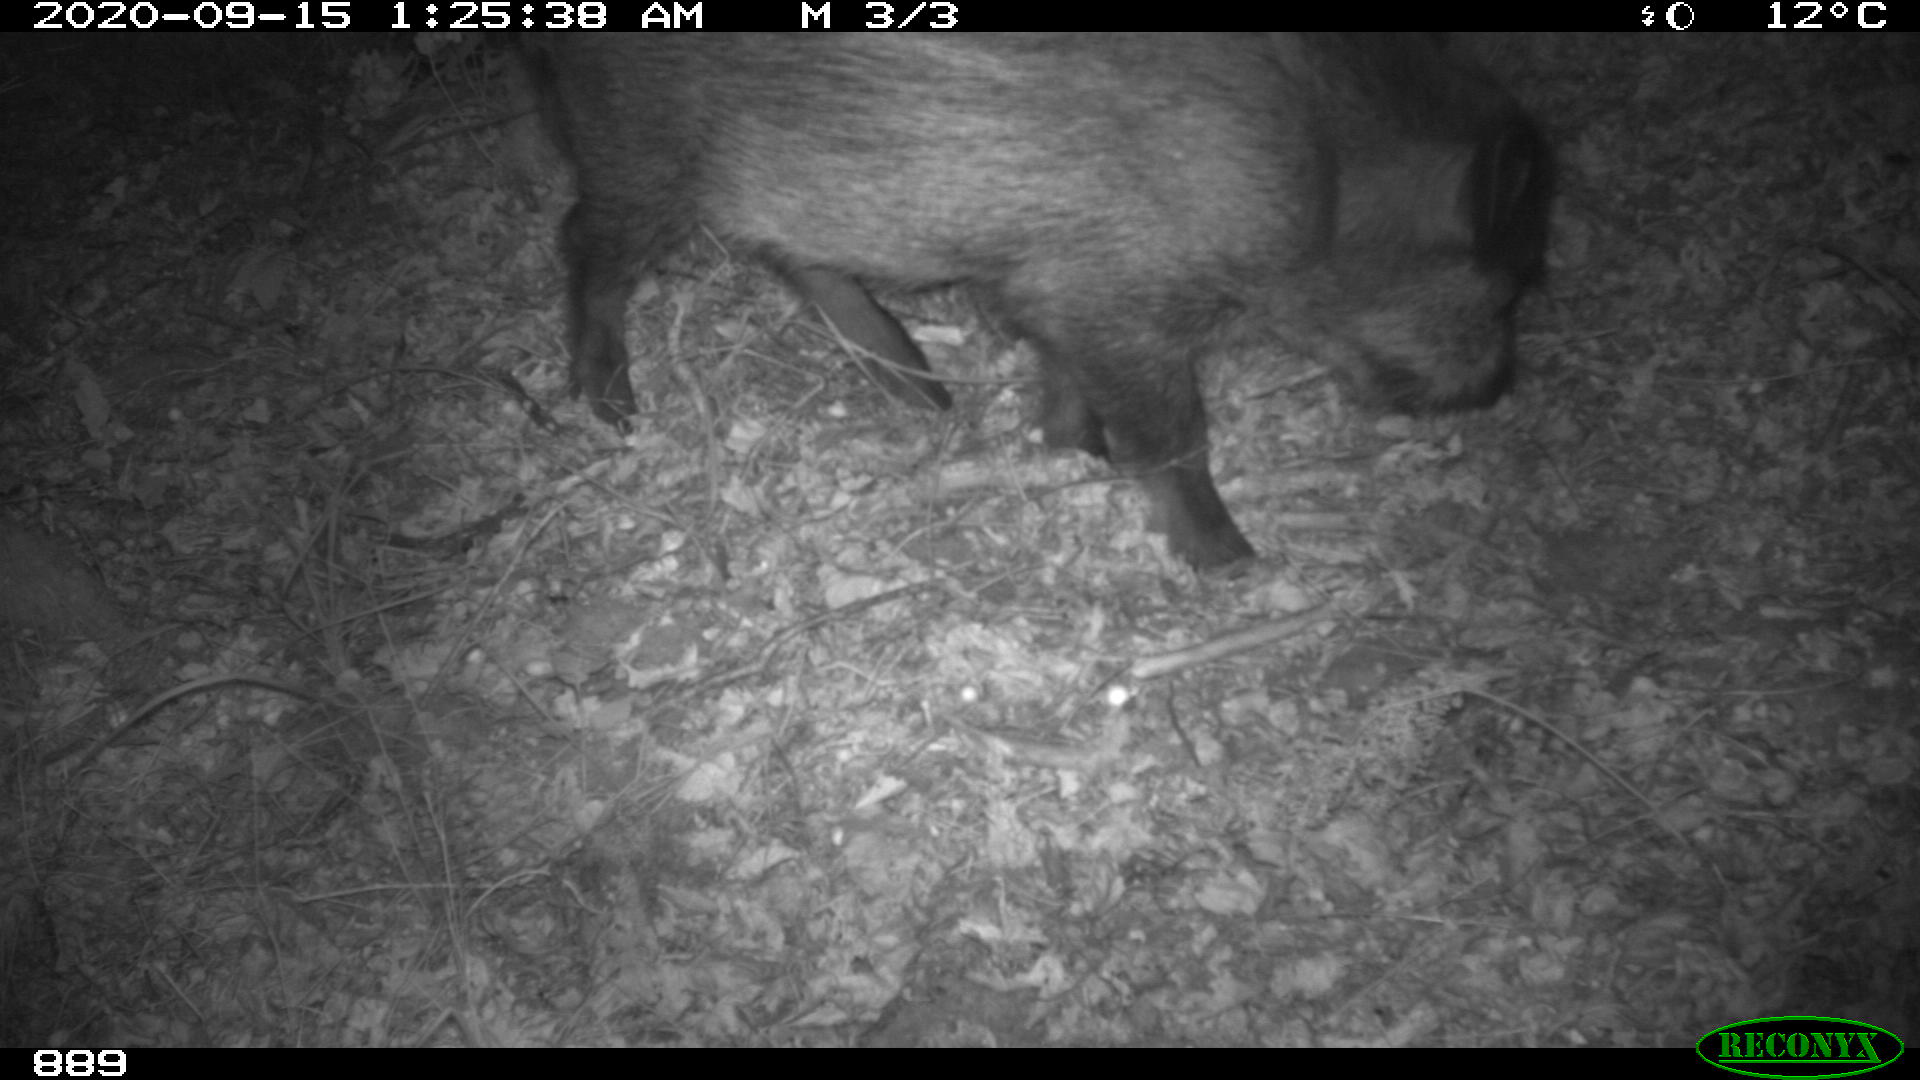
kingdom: Animalia
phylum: Chordata
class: Mammalia
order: Artiodactyla
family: Suidae
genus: Sus
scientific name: Sus scrofa
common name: Wild boar
